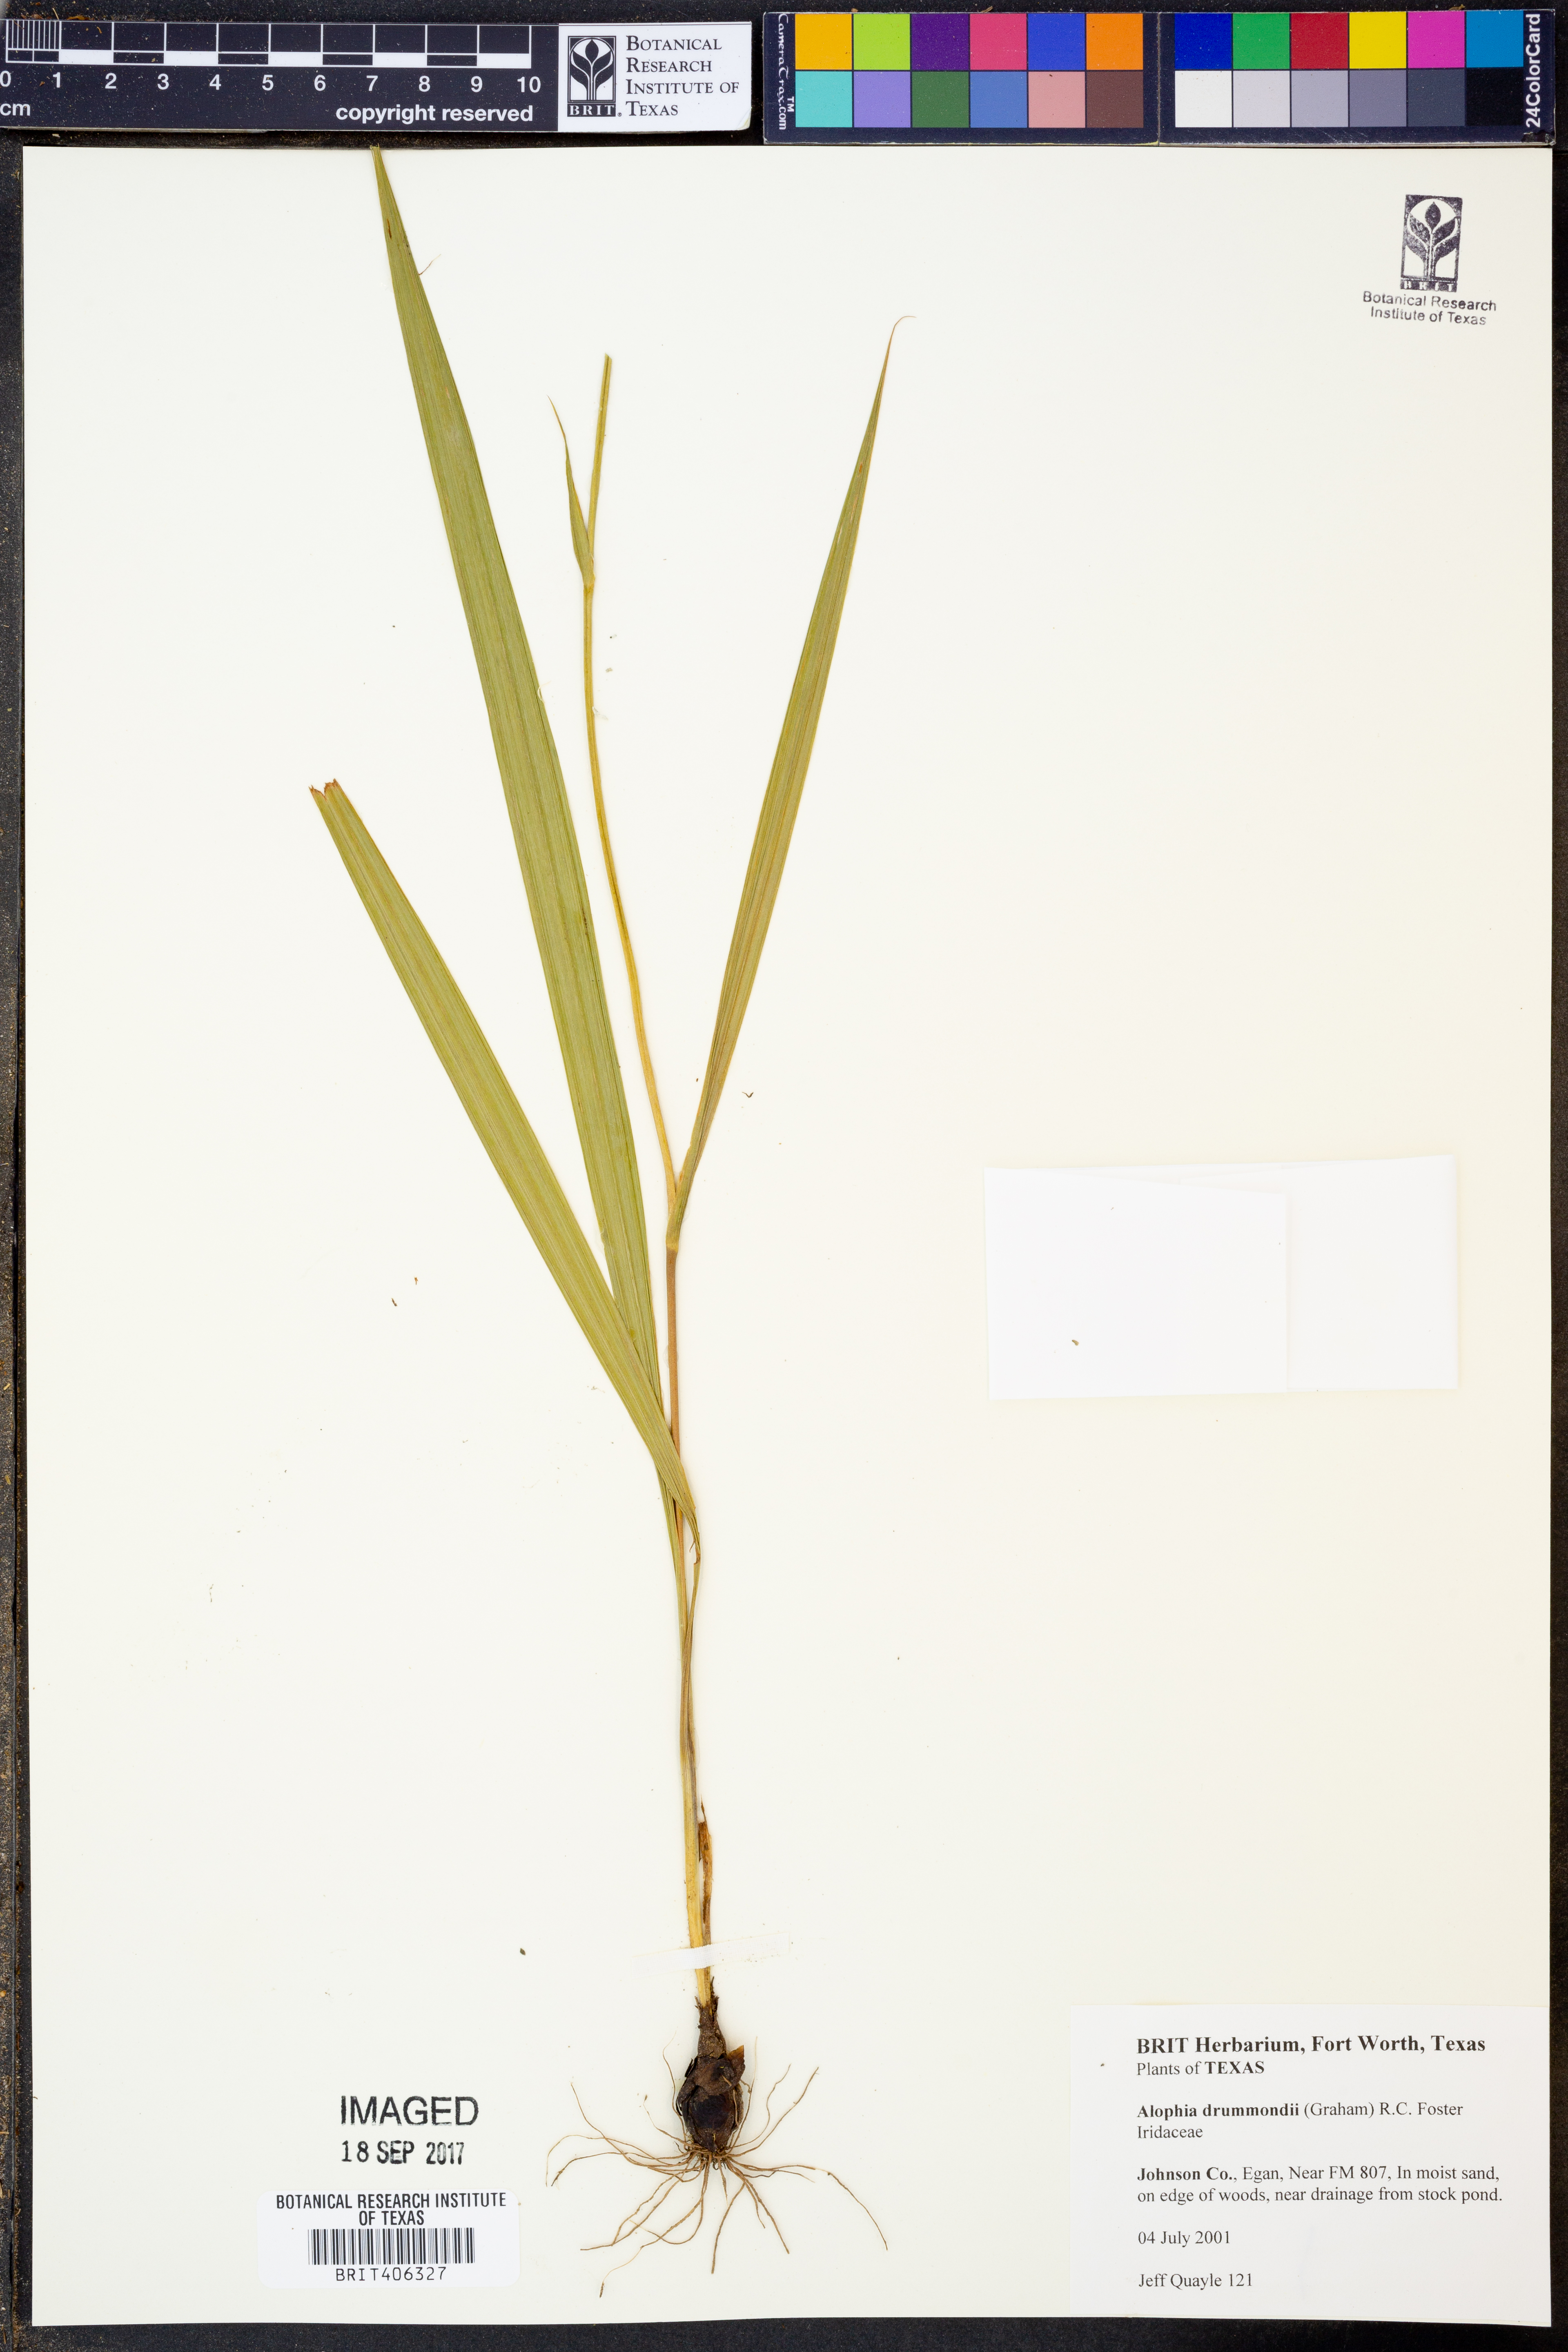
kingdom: Plantae
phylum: Tracheophyta
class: Liliopsida
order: Asparagales
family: Iridaceae
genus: Alophia
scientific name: Alophia drummondii
